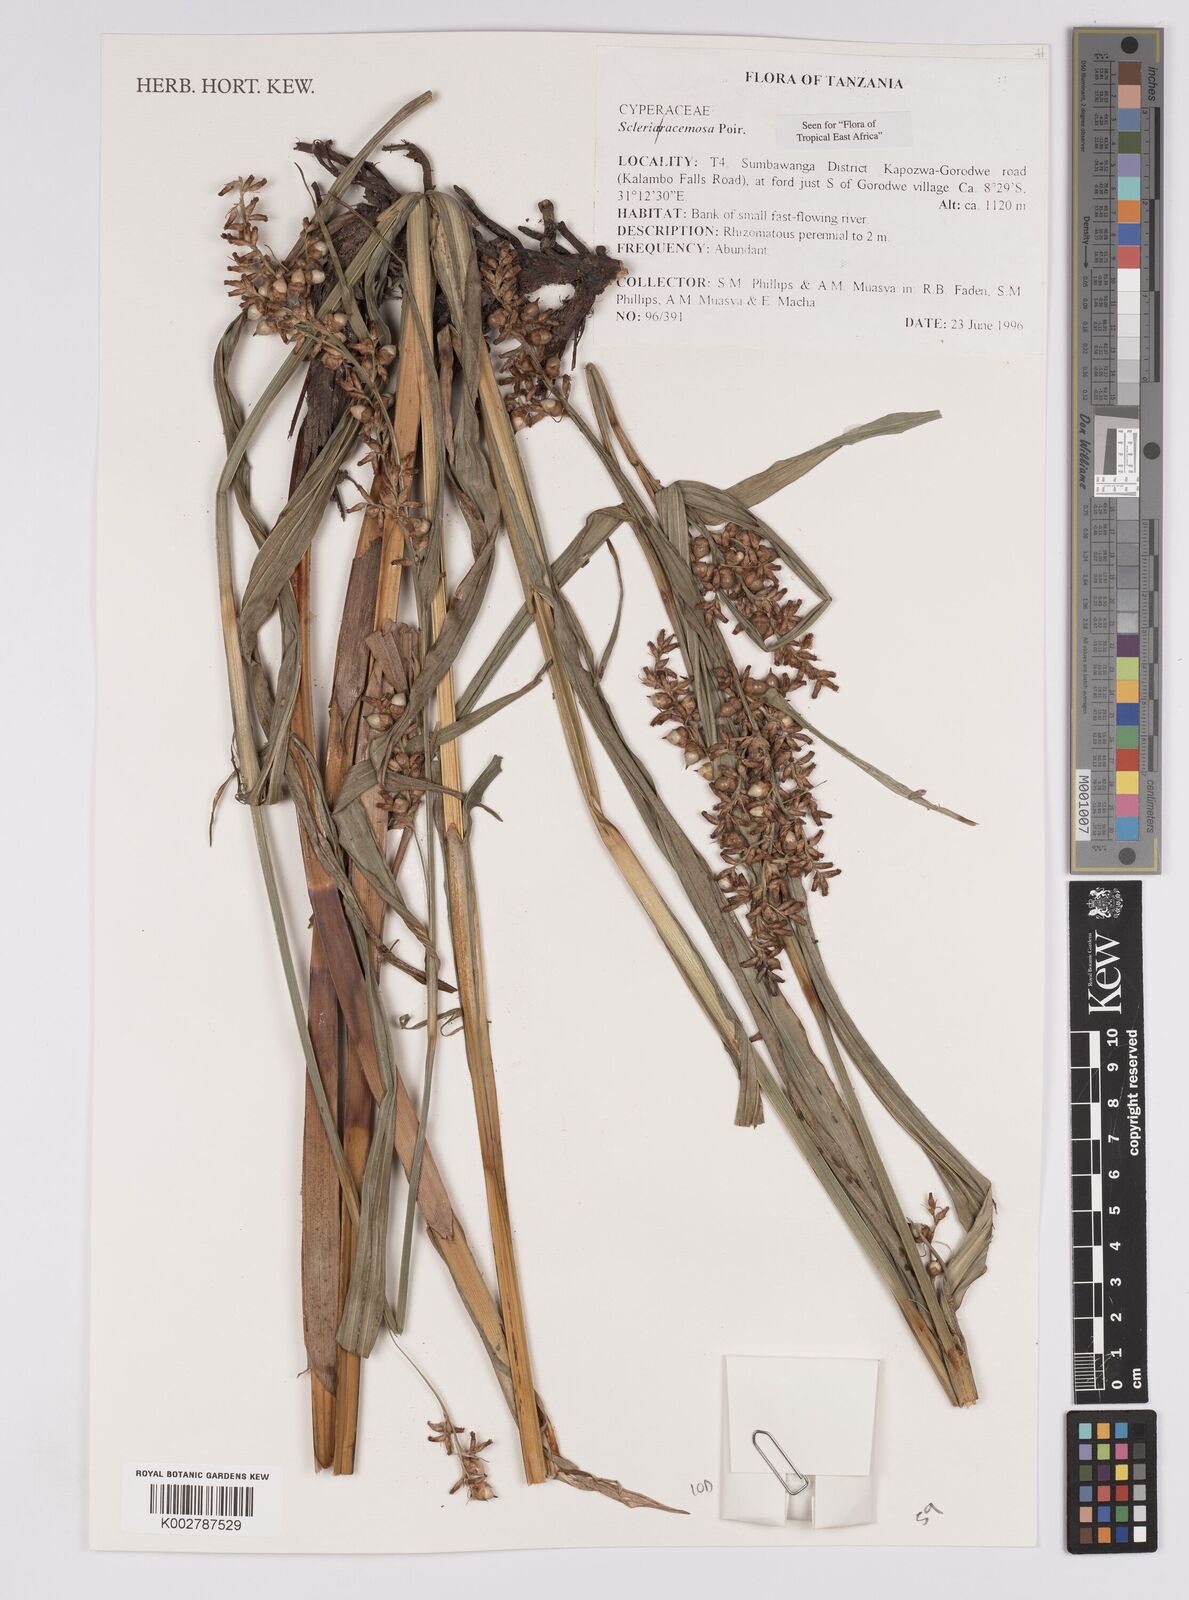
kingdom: Plantae
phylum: Tracheophyta
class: Liliopsida
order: Poales
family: Cyperaceae
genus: Scleria
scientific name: Scleria racemosa
